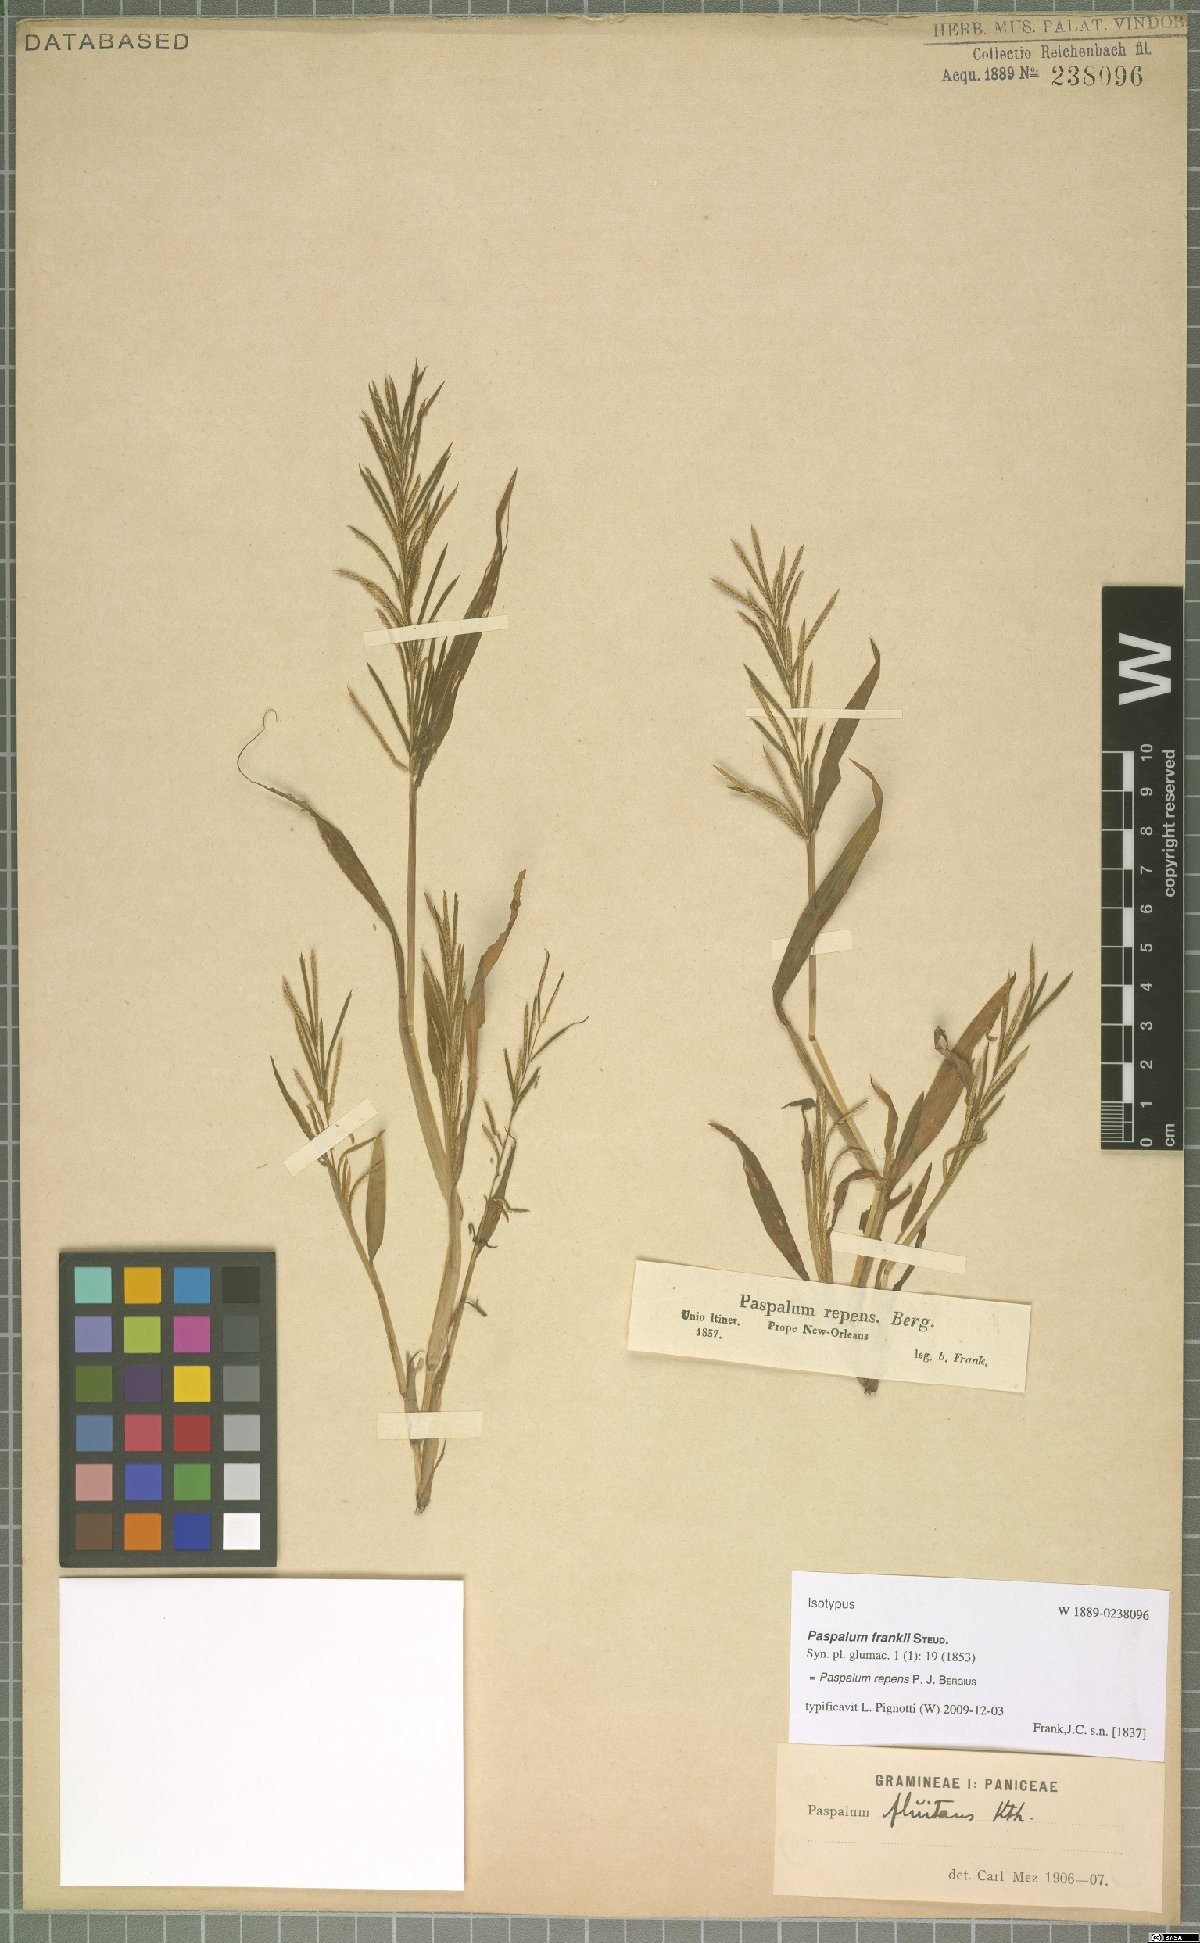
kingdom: Plantae
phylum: Tracheophyta
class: Liliopsida
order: Poales
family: Poaceae
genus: Paspalum
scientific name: Paspalum repens
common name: Water paspalum
